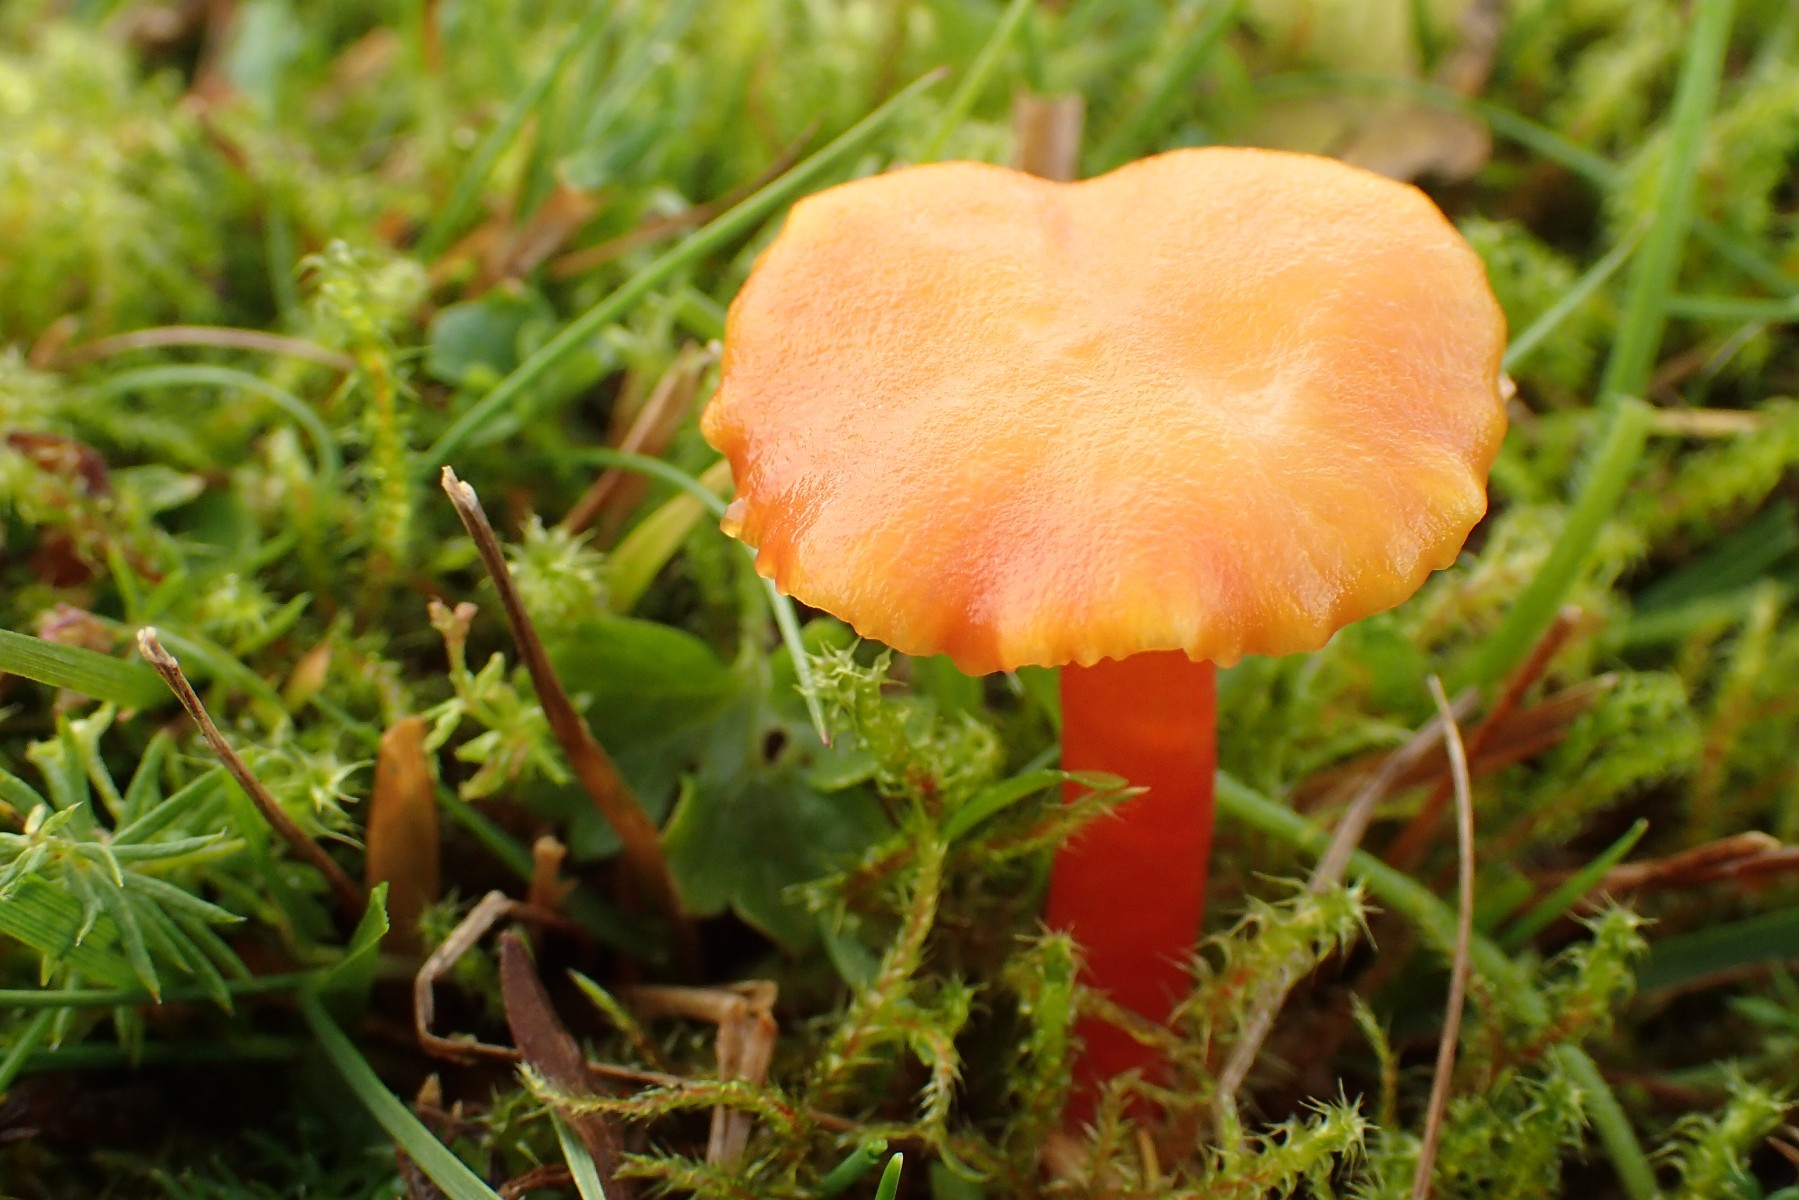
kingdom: Fungi
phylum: Basidiomycota
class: Agaricomycetes
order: Agaricales
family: Hygrophoraceae
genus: Hygrocybe
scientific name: Hygrocybe insipida
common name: liden vokshat
